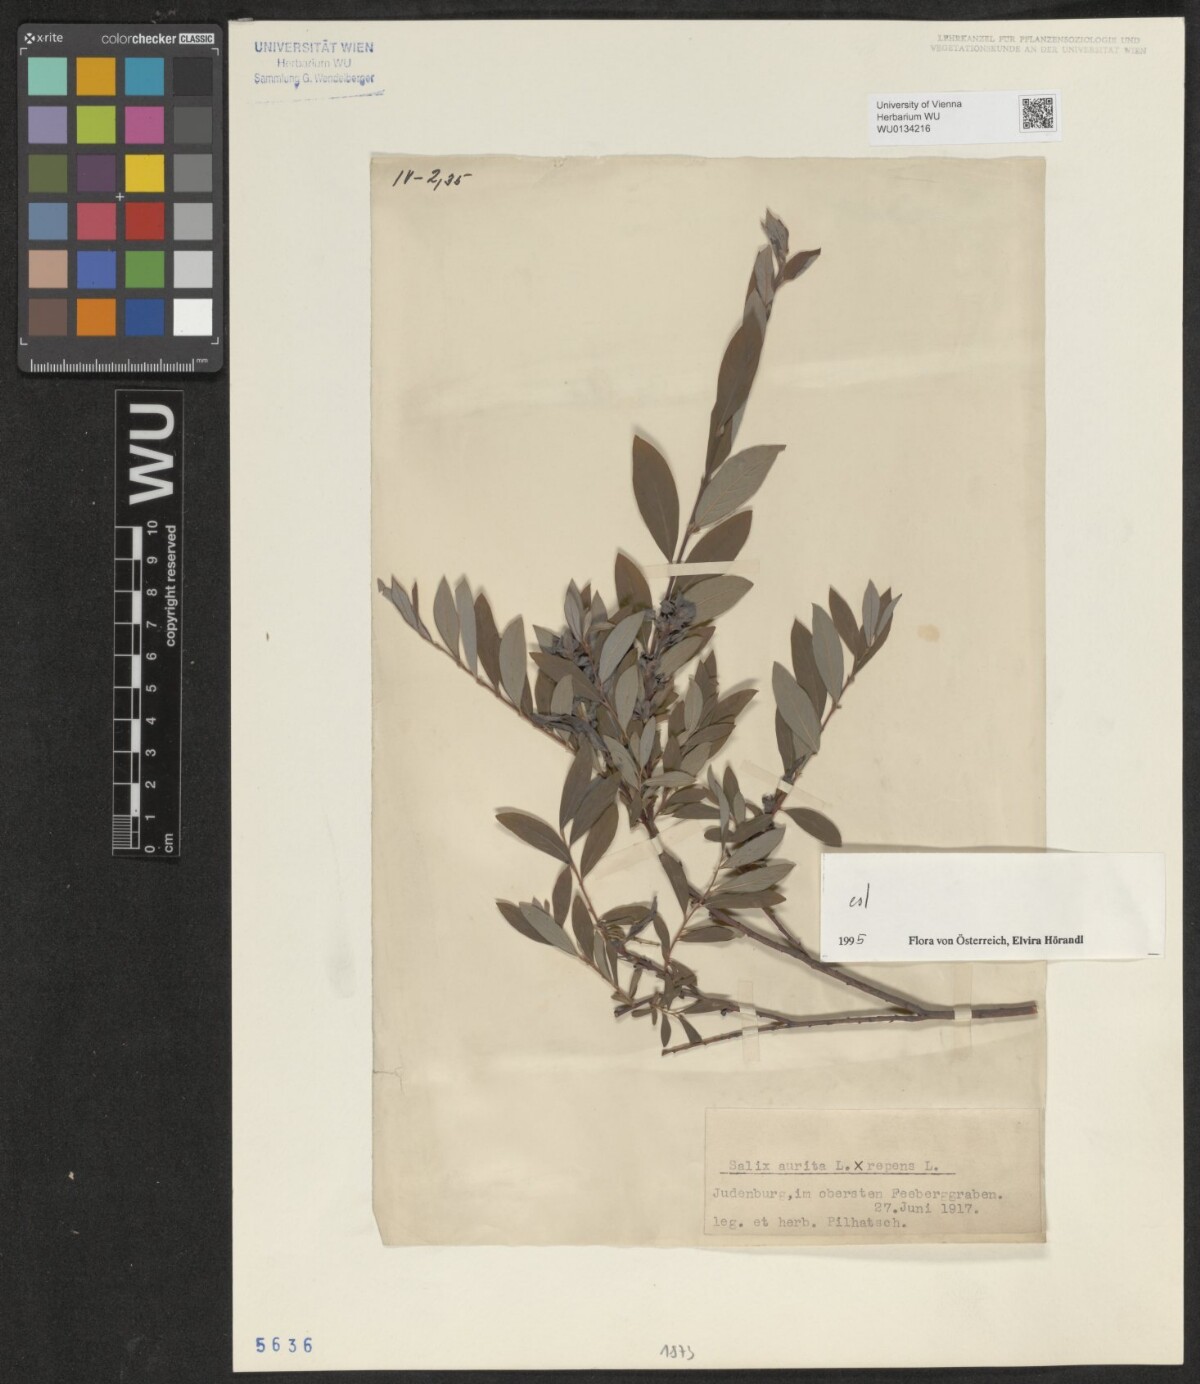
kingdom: Plantae
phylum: Tracheophyta
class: Magnoliopsida
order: Malpighiales
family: Salicaceae
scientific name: Salicaceae
